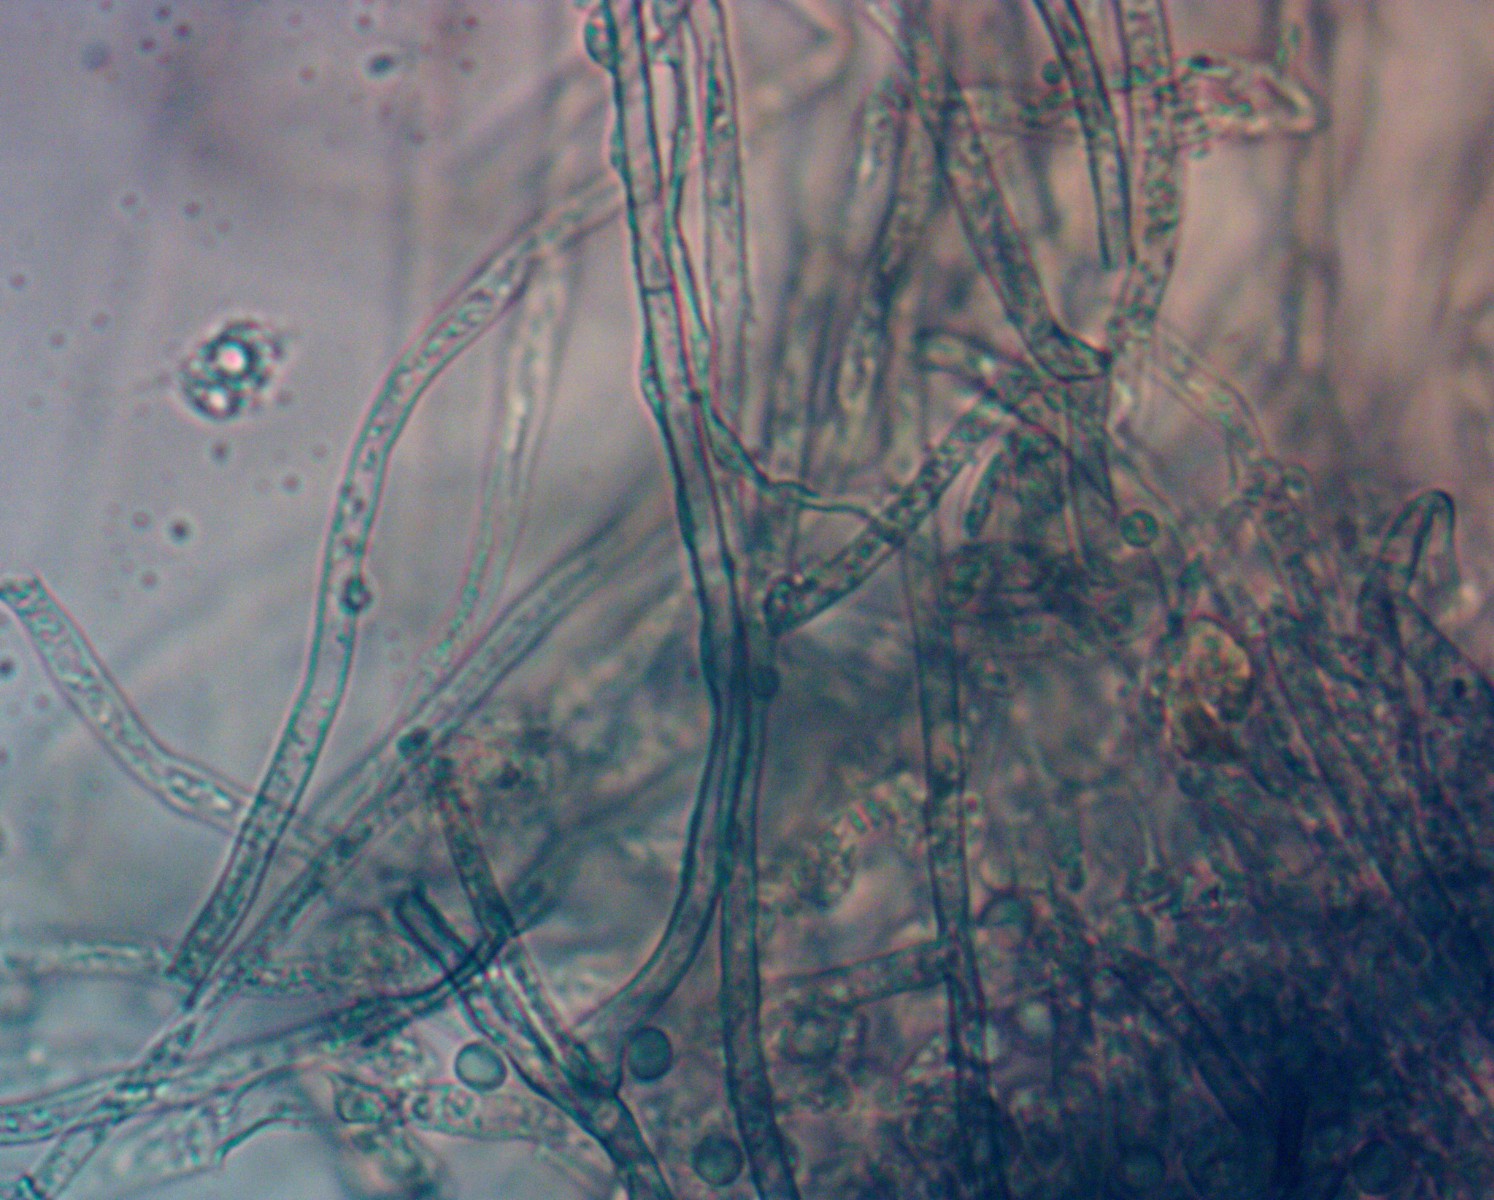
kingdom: Fungi
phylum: Basidiomycota
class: Agaricomycetes
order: Atheliales
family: Atheliaceae
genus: Byssocorticium
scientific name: Byssocorticium atrovirens
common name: blå førnehinde
